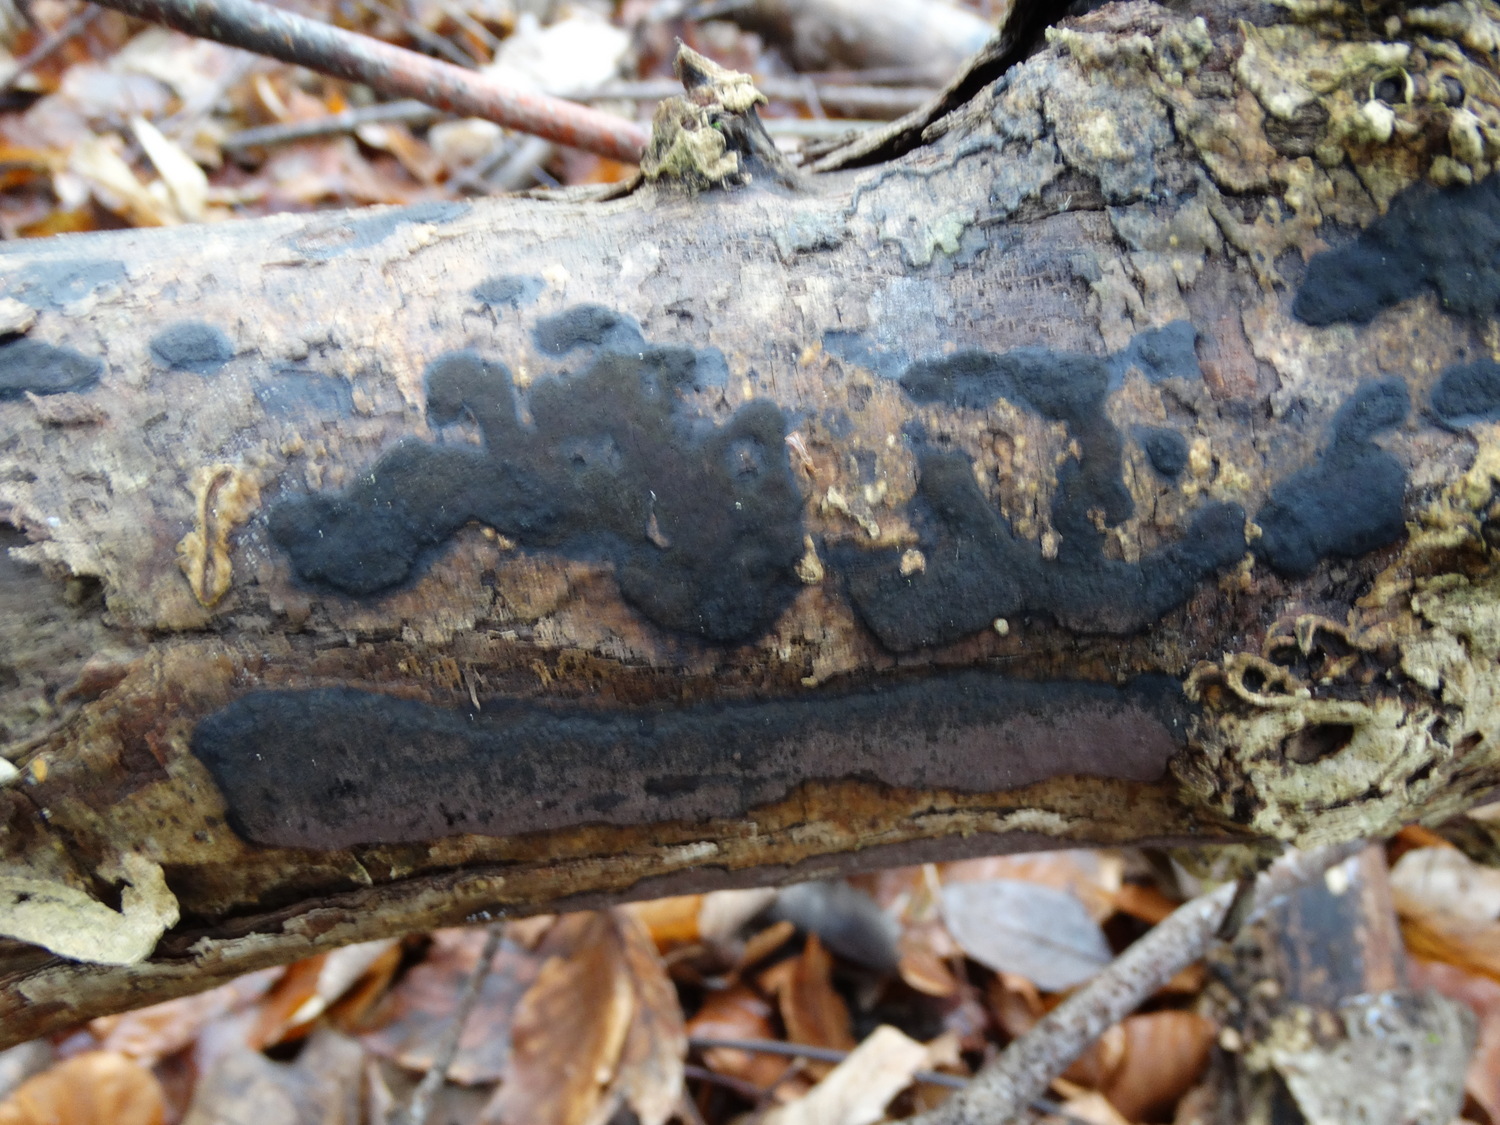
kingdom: Fungi
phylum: Ascomycota
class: Sordariomycetes
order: Xylariales
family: Hypoxylaceae
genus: Hypoxylon
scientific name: Hypoxylon petriniae
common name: nedsænket kulbær
